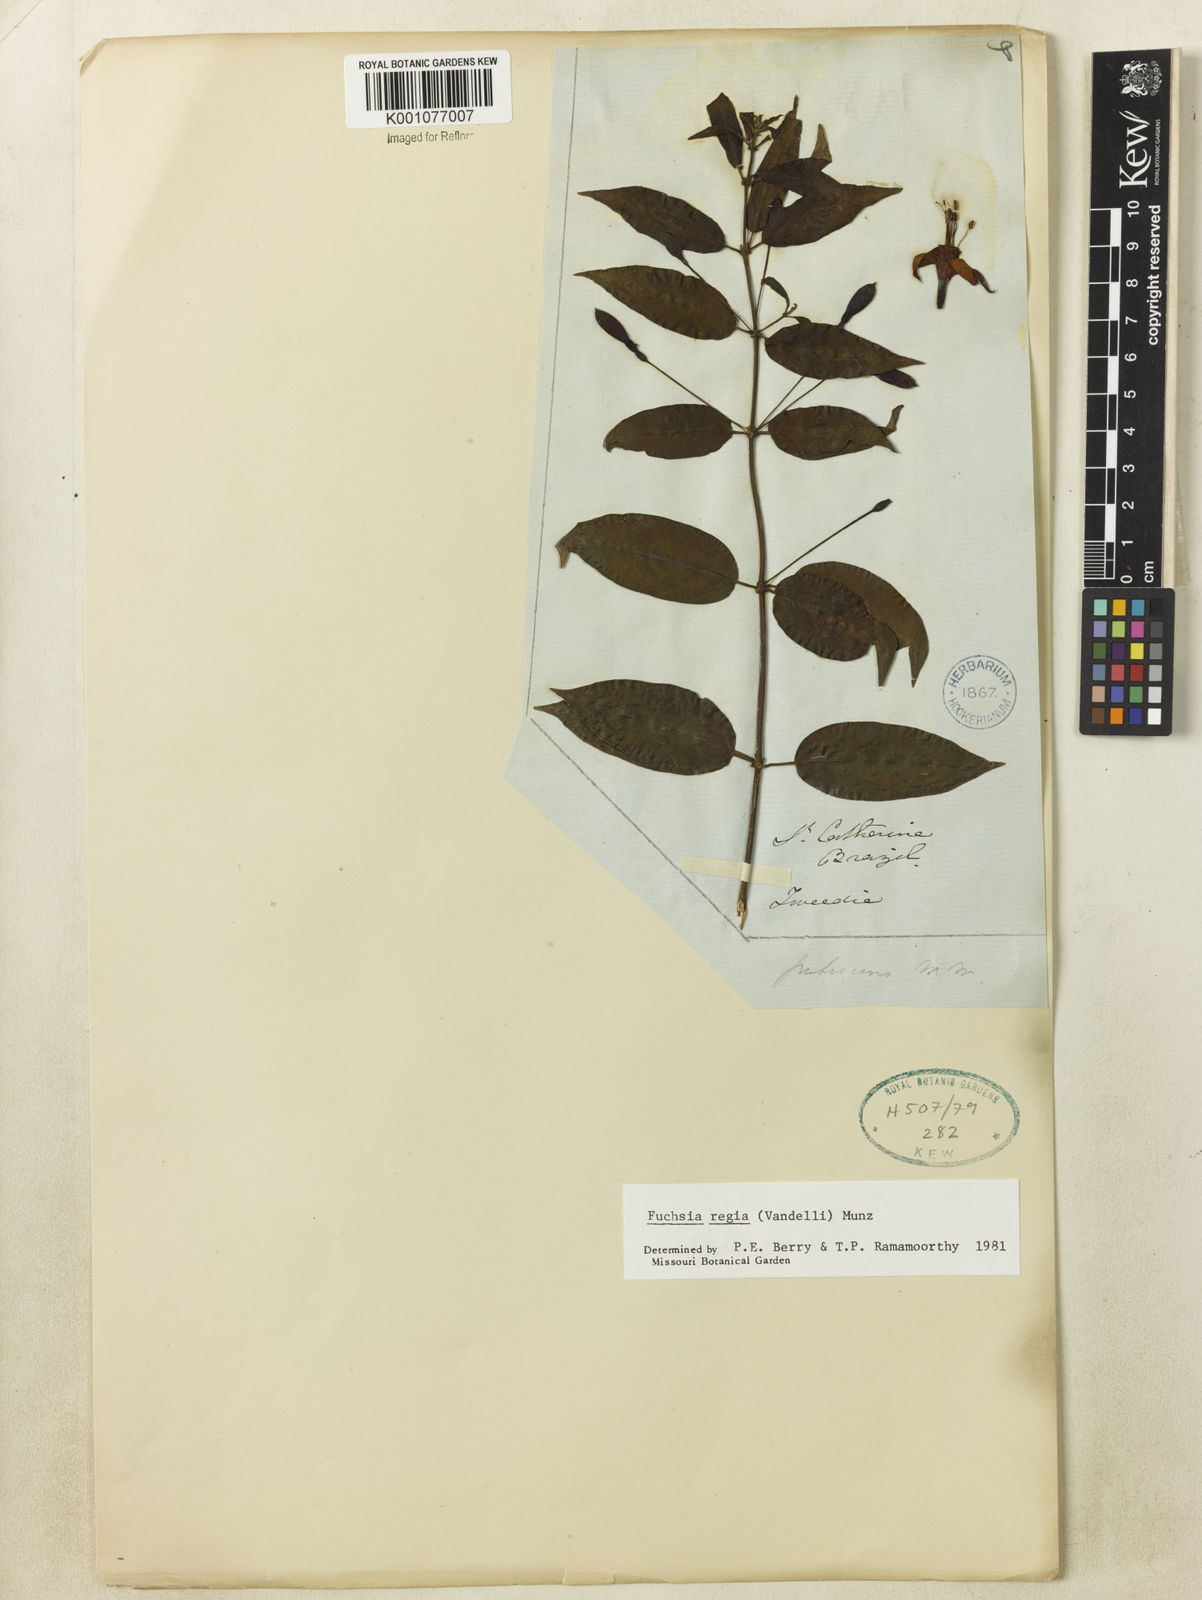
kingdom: Plantae
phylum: Tracheophyta
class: Magnoliopsida
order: Myrtales
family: Onagraceae
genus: Fuchsia
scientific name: Fuchsia regia
